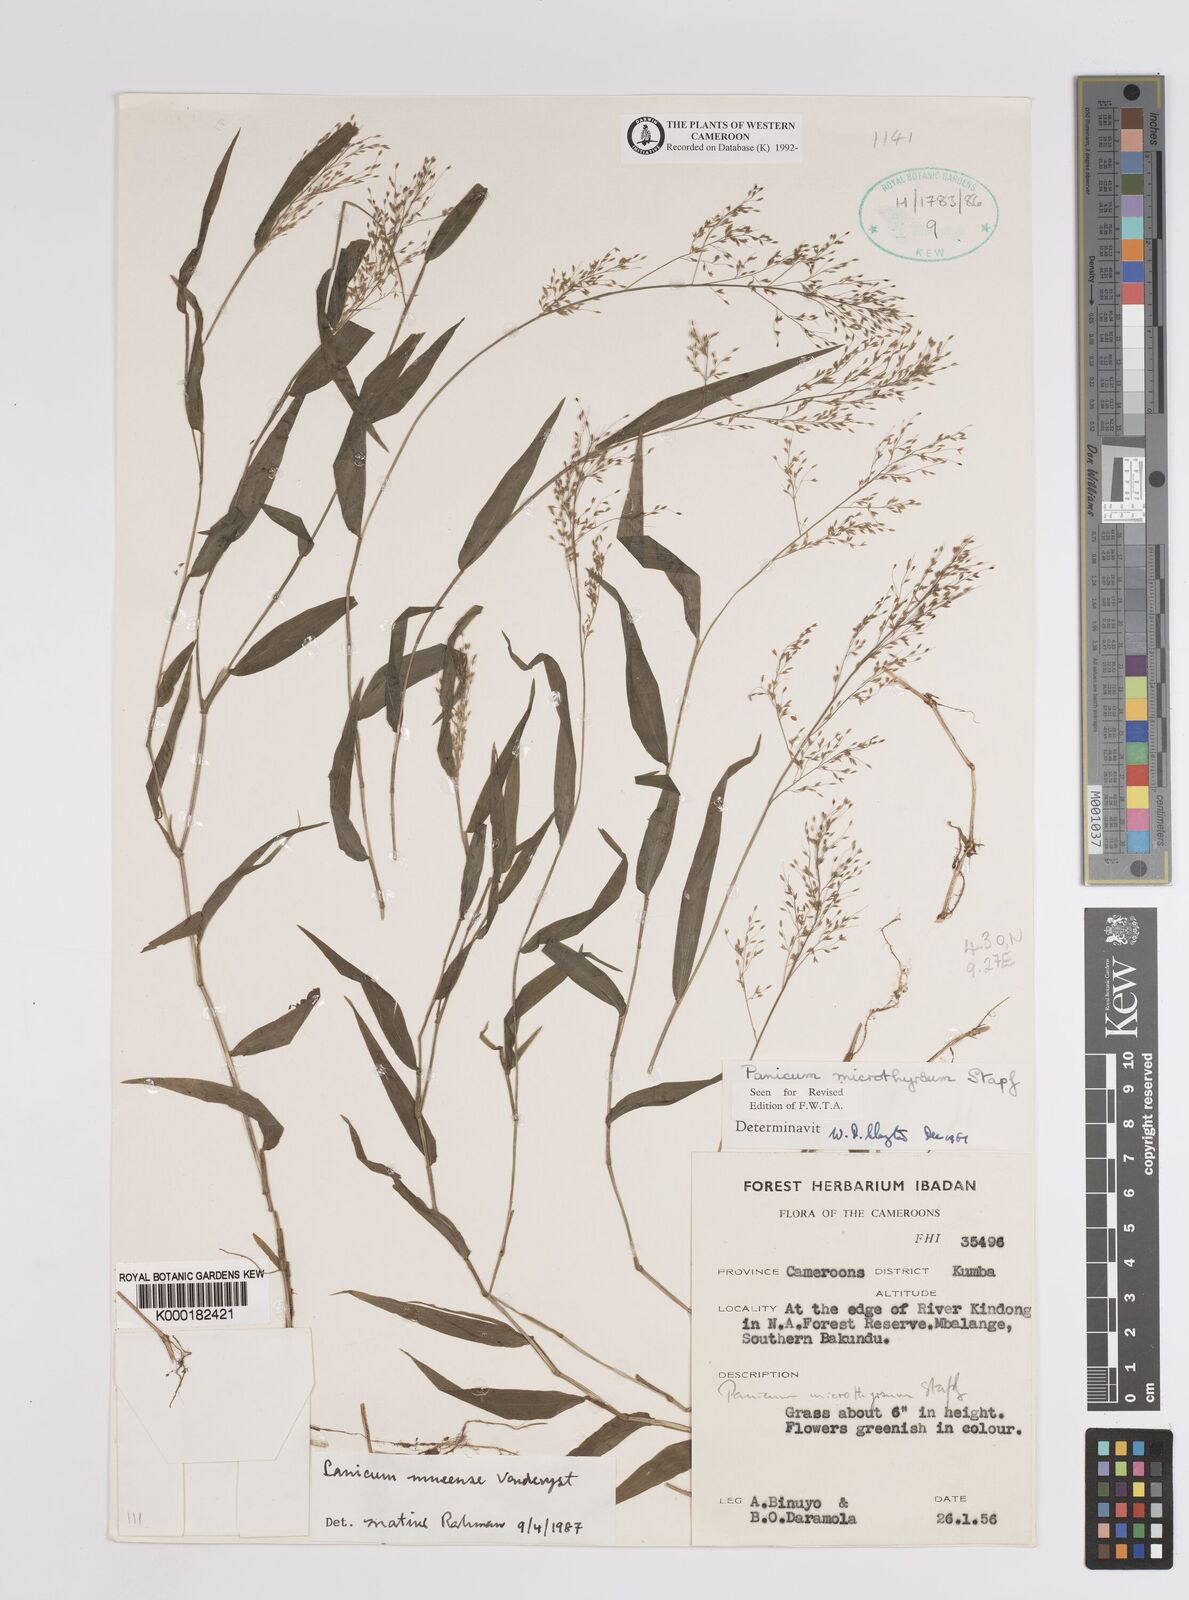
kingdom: Plantae
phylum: Tracheophyta
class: Liliopsida
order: Poales
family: Poaceae
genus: Trichanthecium
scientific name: Trichanthecium mueense
